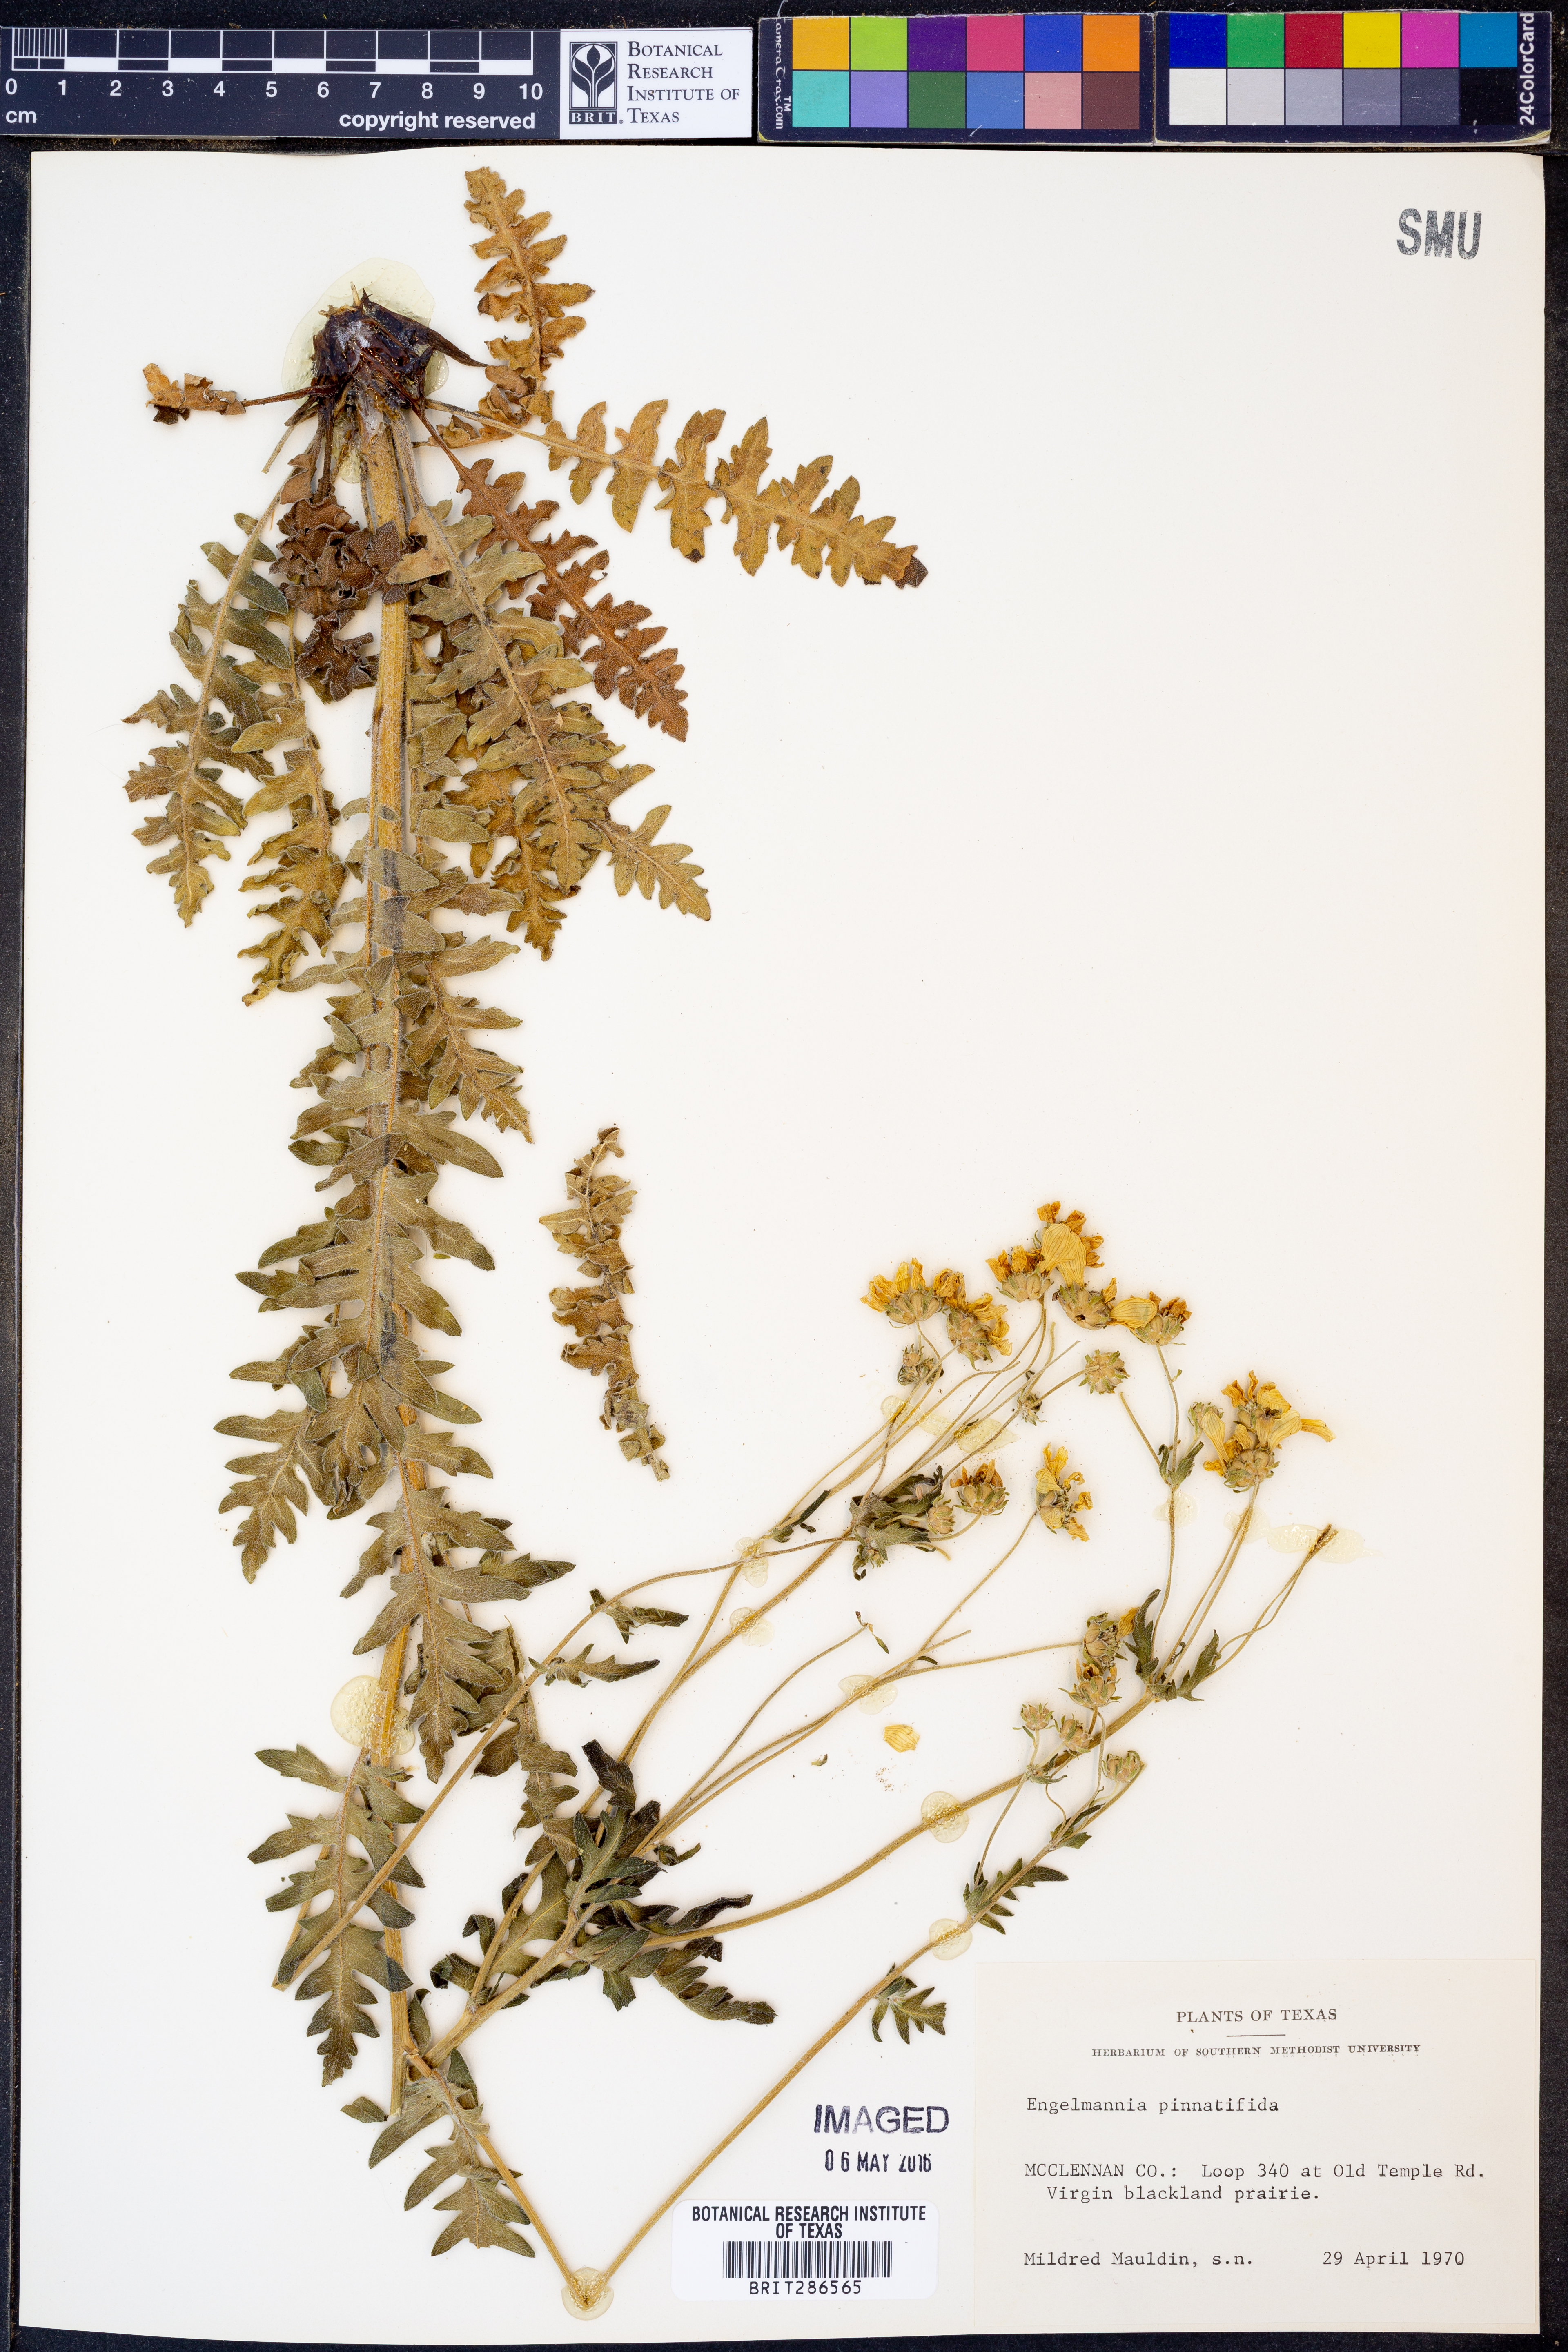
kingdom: Plantae
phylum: Tracheophyta
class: Magnoliopsida
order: Asterales
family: Asteraceae
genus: Engelmannia
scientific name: Engelmannia peristenia
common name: Engelmann's daisy
